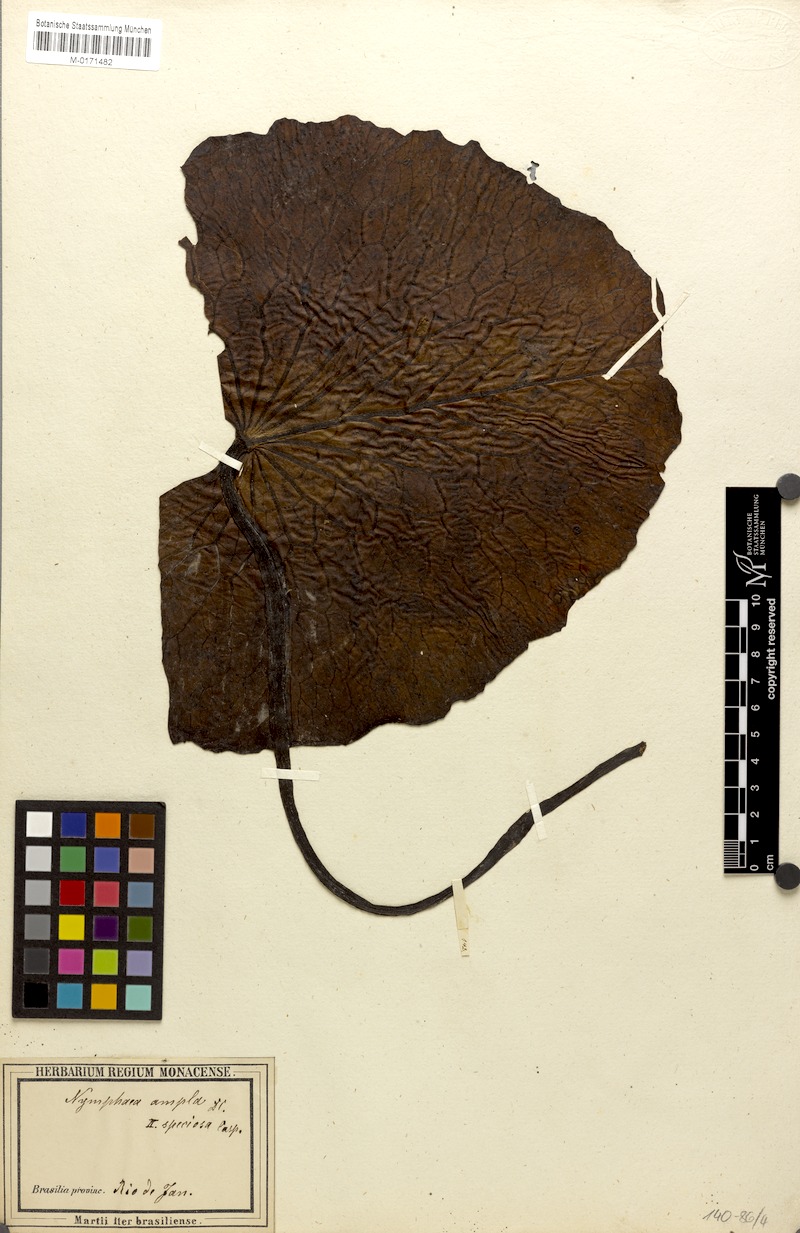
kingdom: Plantae
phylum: Tracheophyta
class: Magnoliopsida
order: Nymphaeales
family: Nymphaeaceae
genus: Nymphaea
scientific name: Nymphaea pulchella
